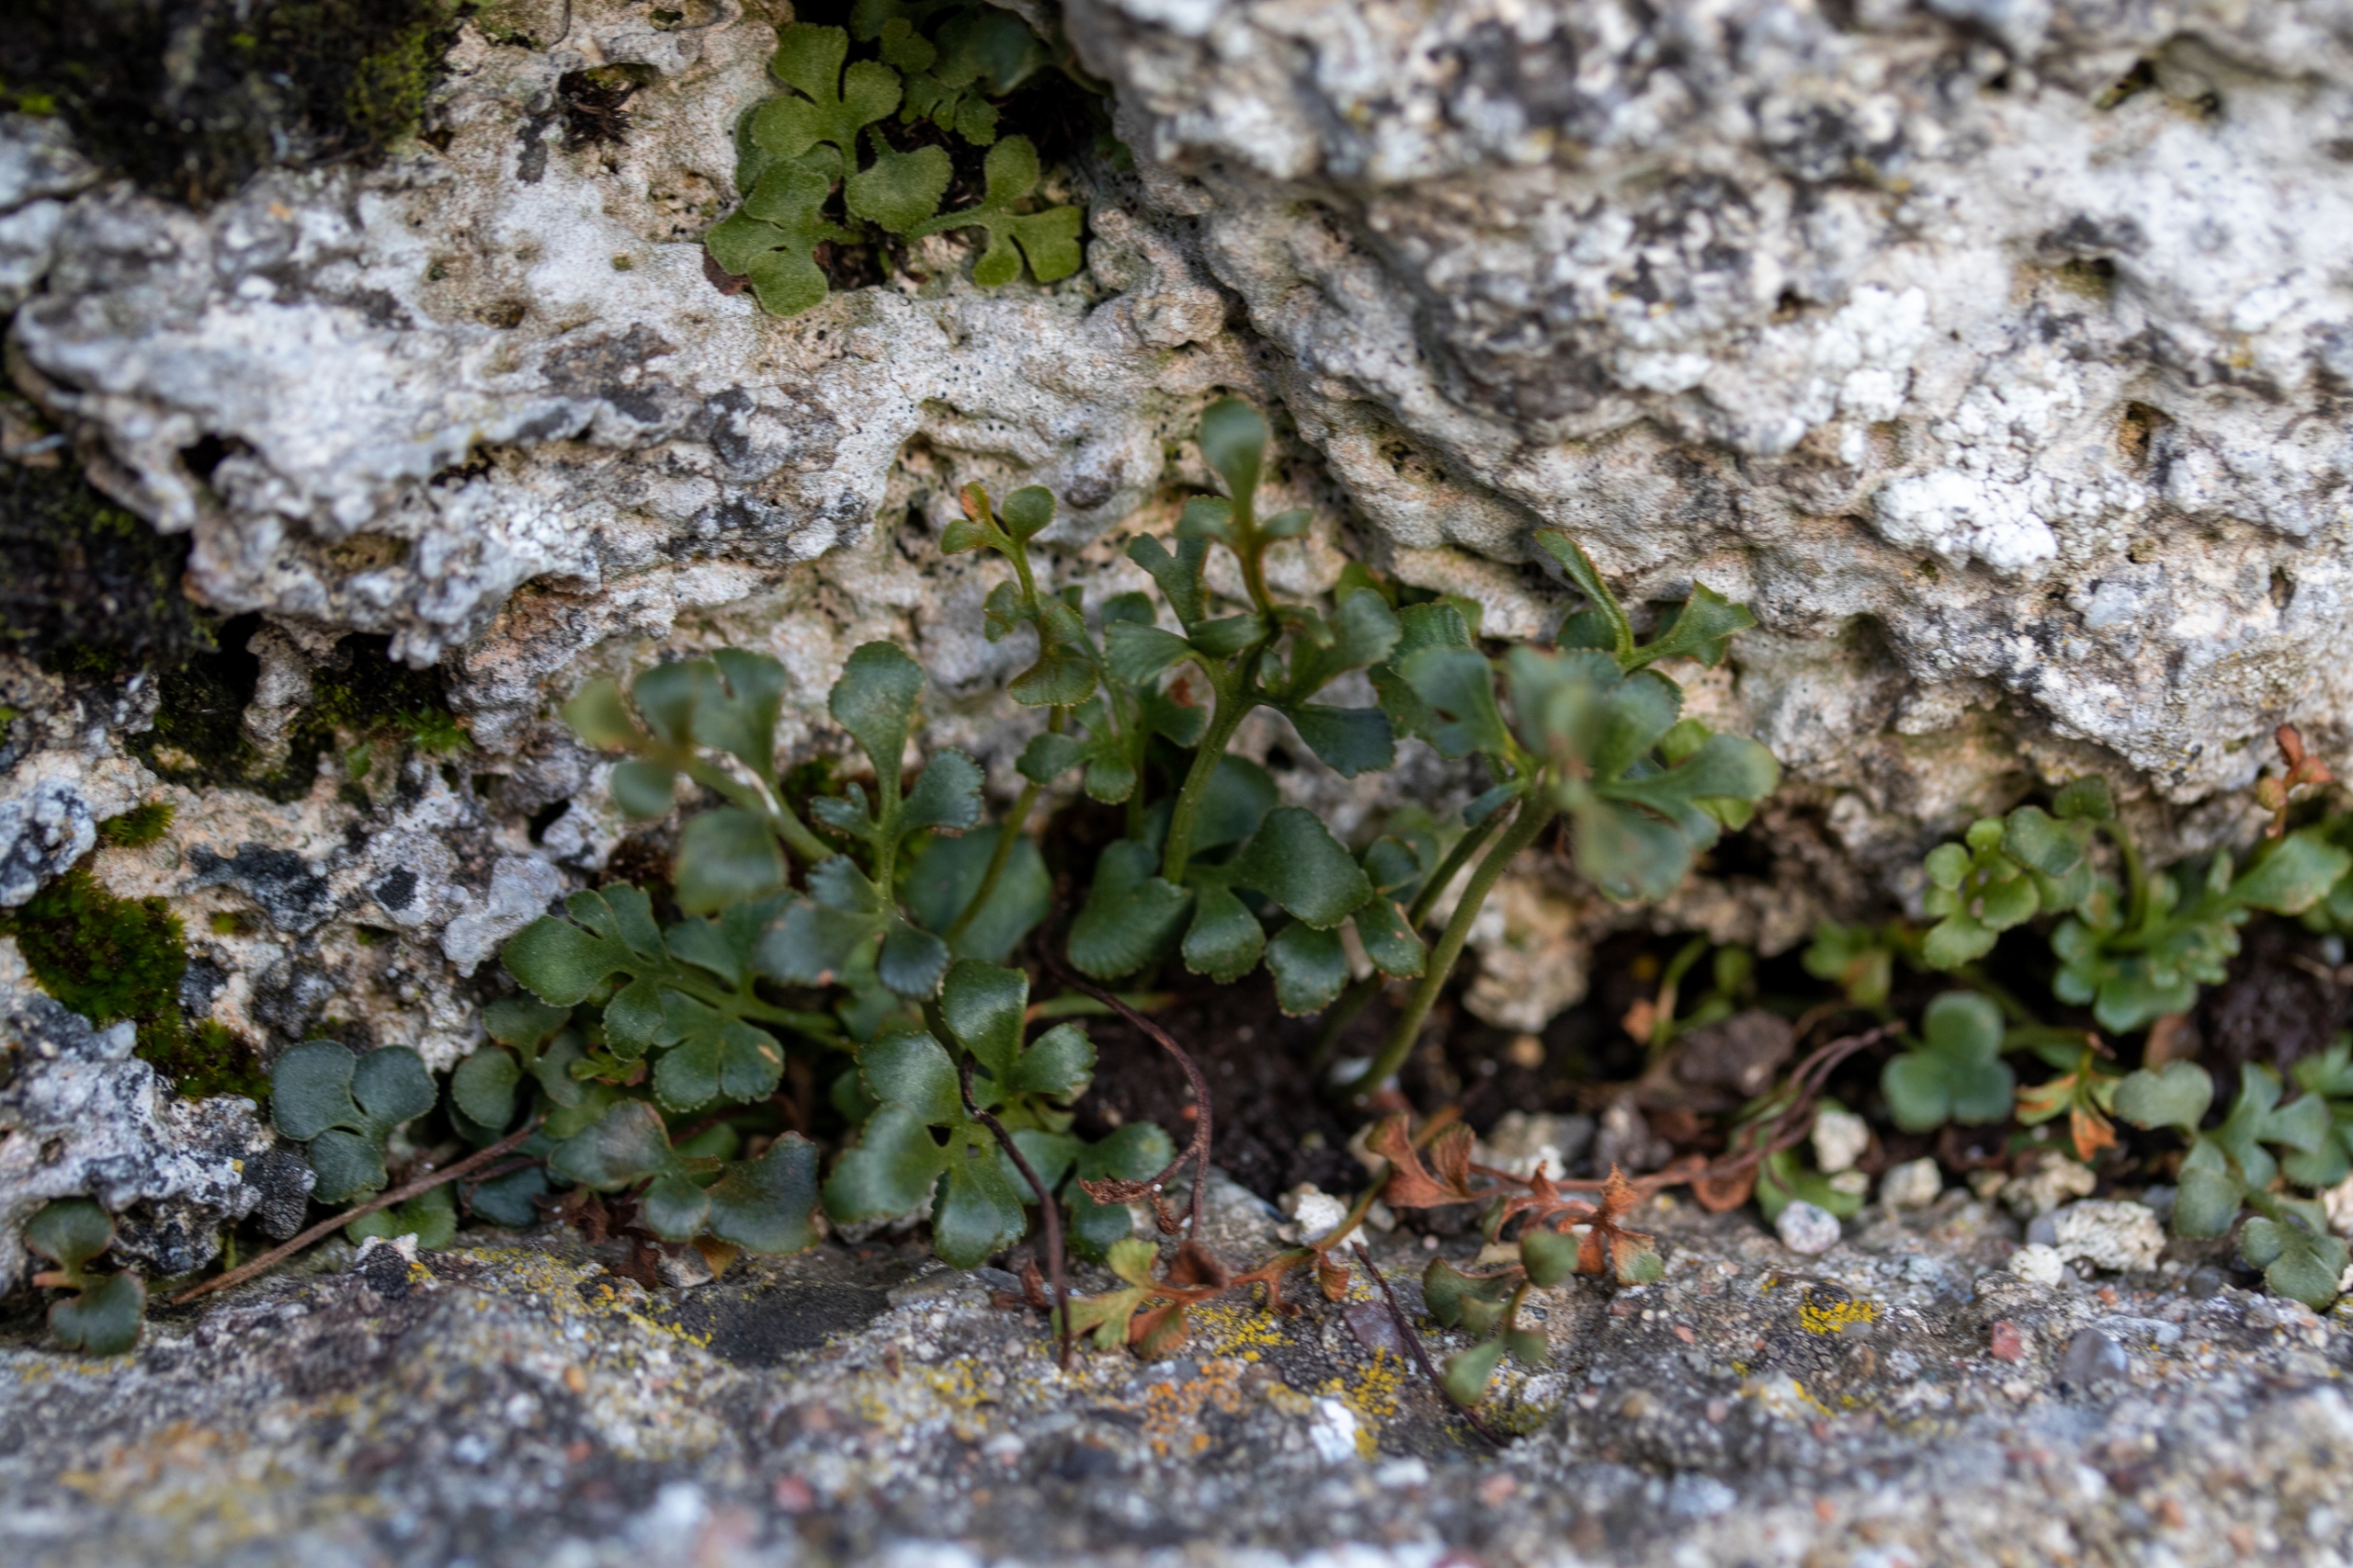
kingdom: Plantae
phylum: Tracheophyta
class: Polypodiopsida
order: Polypodiales
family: Aspleniaceae
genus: Asplenium
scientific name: Asplenium ruta-muraria
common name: Murrude
